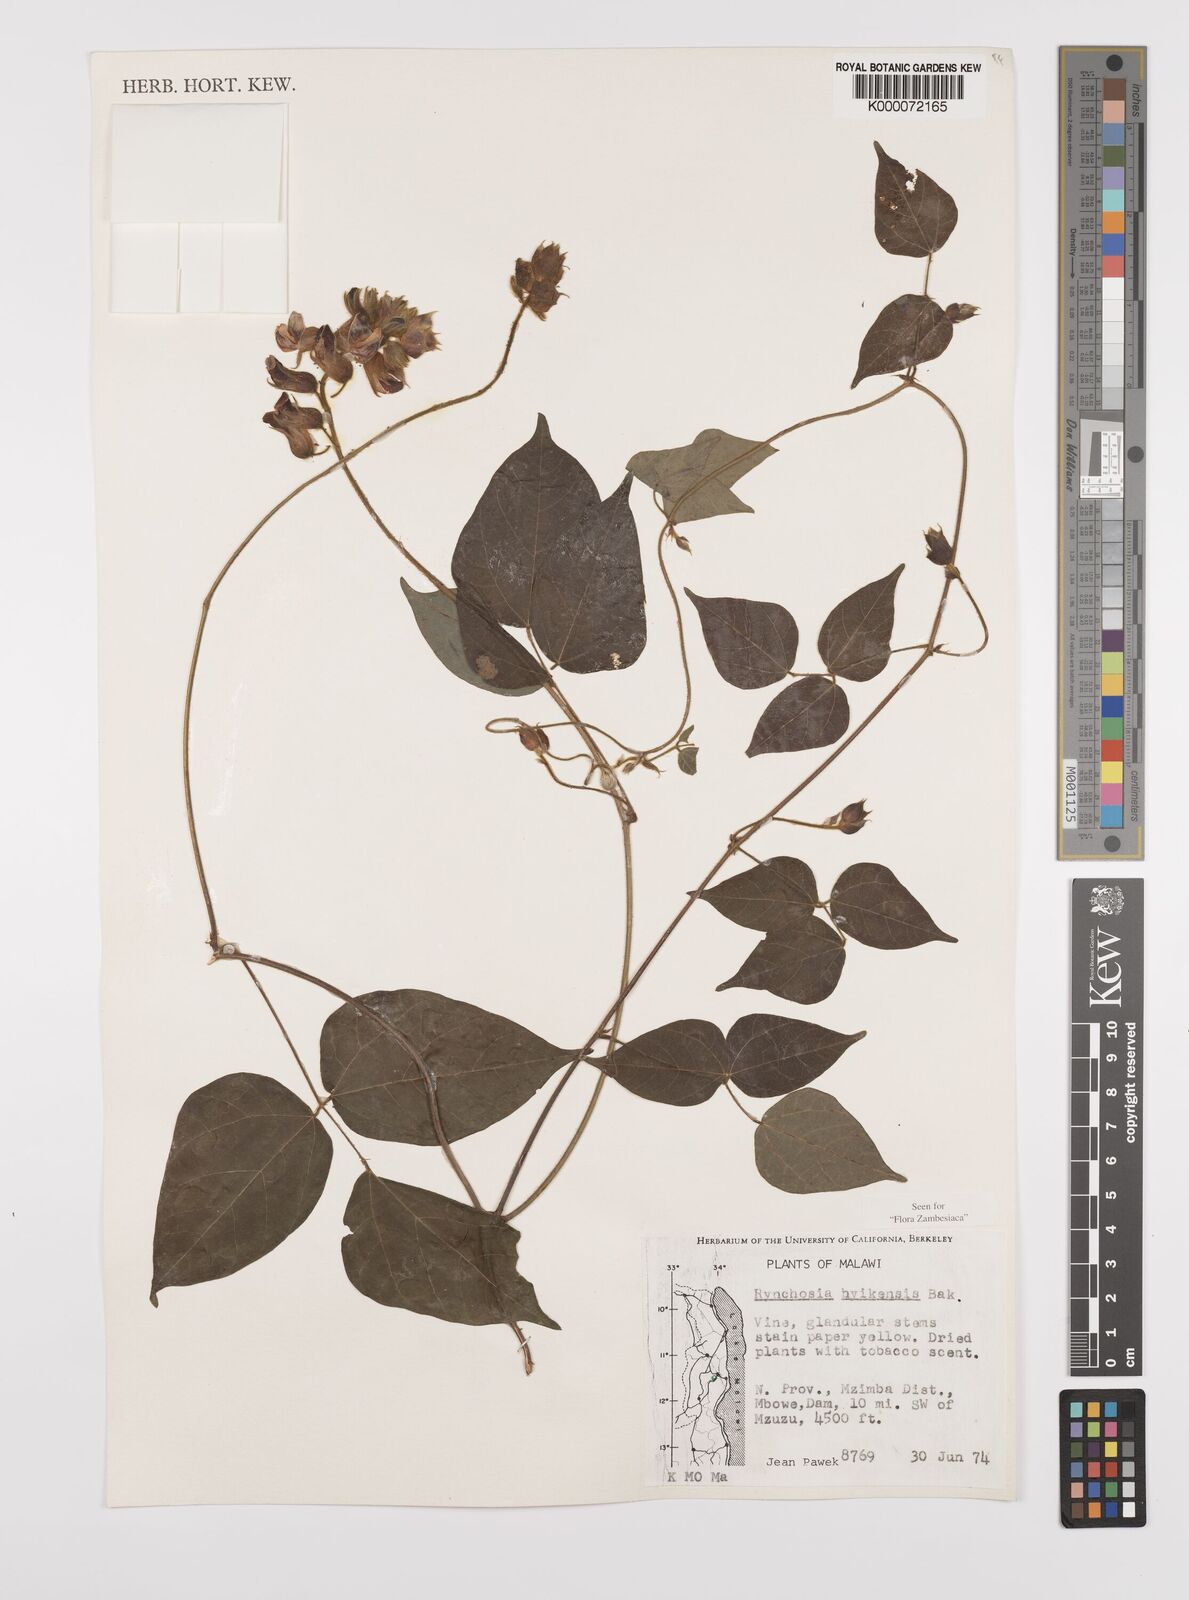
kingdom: Plantae
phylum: Tracheophyta
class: Magnoliopsida
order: Fabales
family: Fabaceae
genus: Rhynchosia
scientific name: Rhynchosia nyikensis
